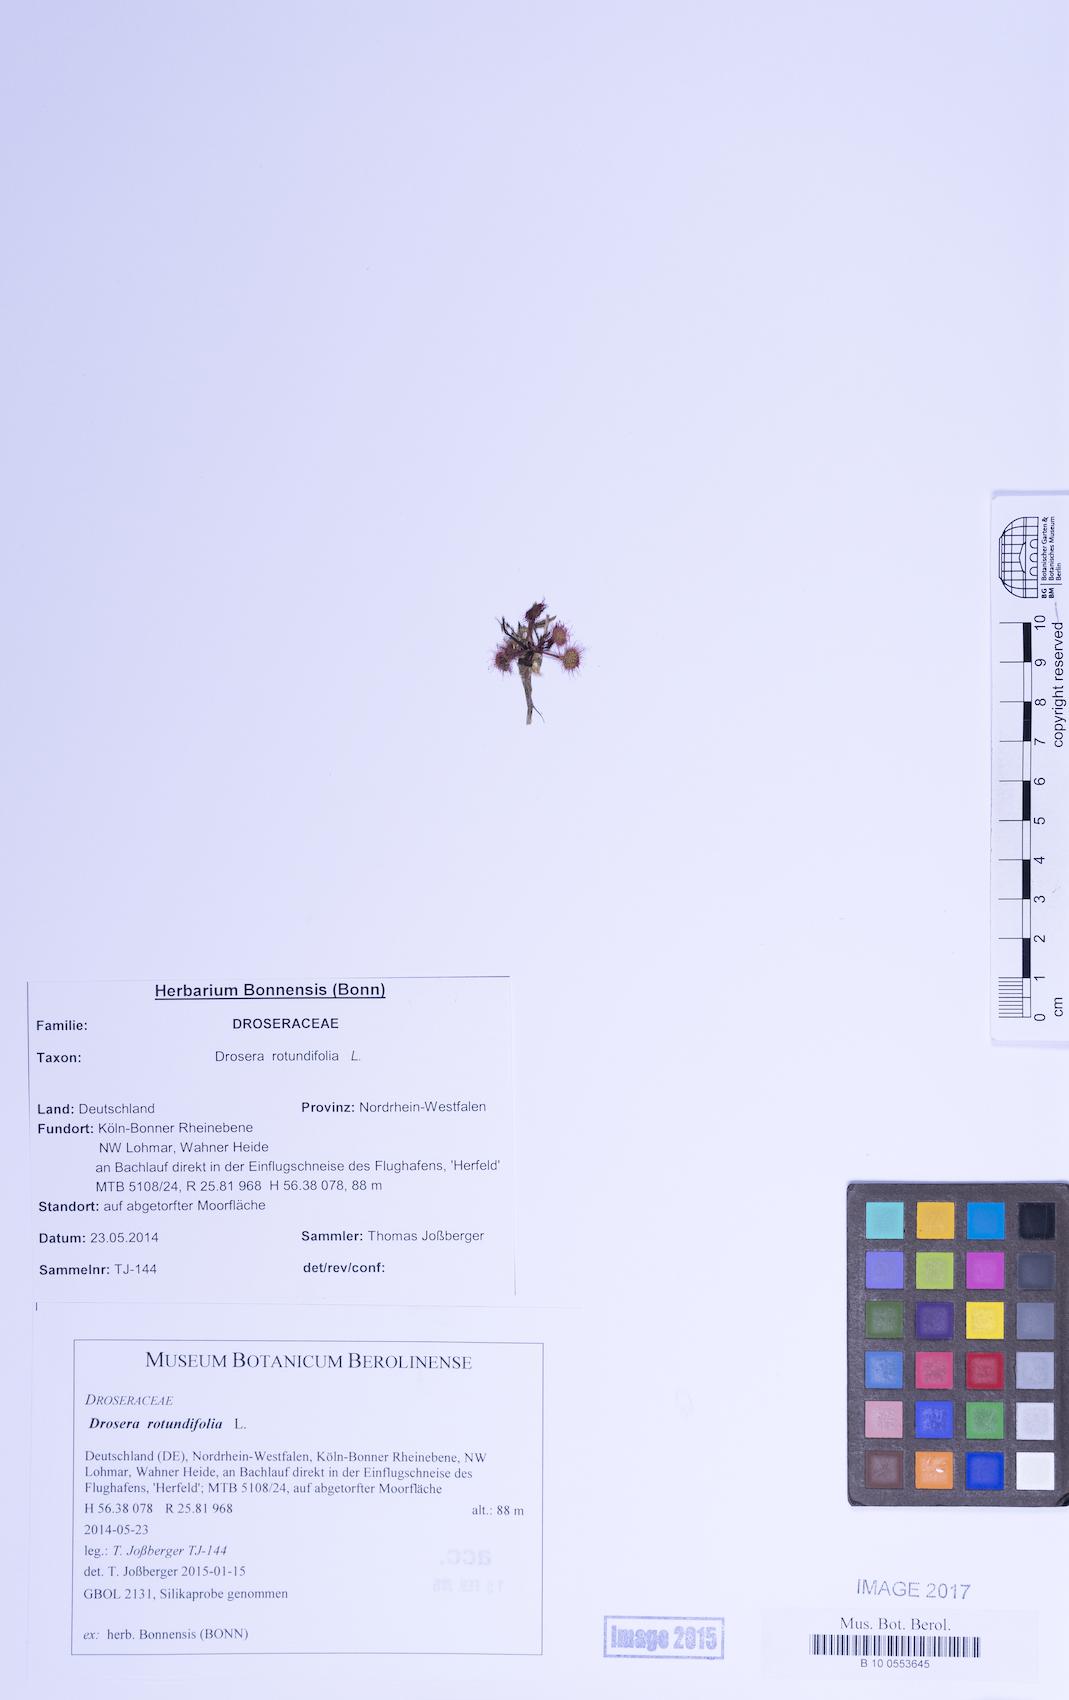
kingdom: Plantae
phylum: Tracheophyta
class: Magnoliopsida
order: Caryophyllales
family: Droseraceae
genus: Drosera
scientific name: Drosera rotundifolia
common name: Round-leaved sundew
